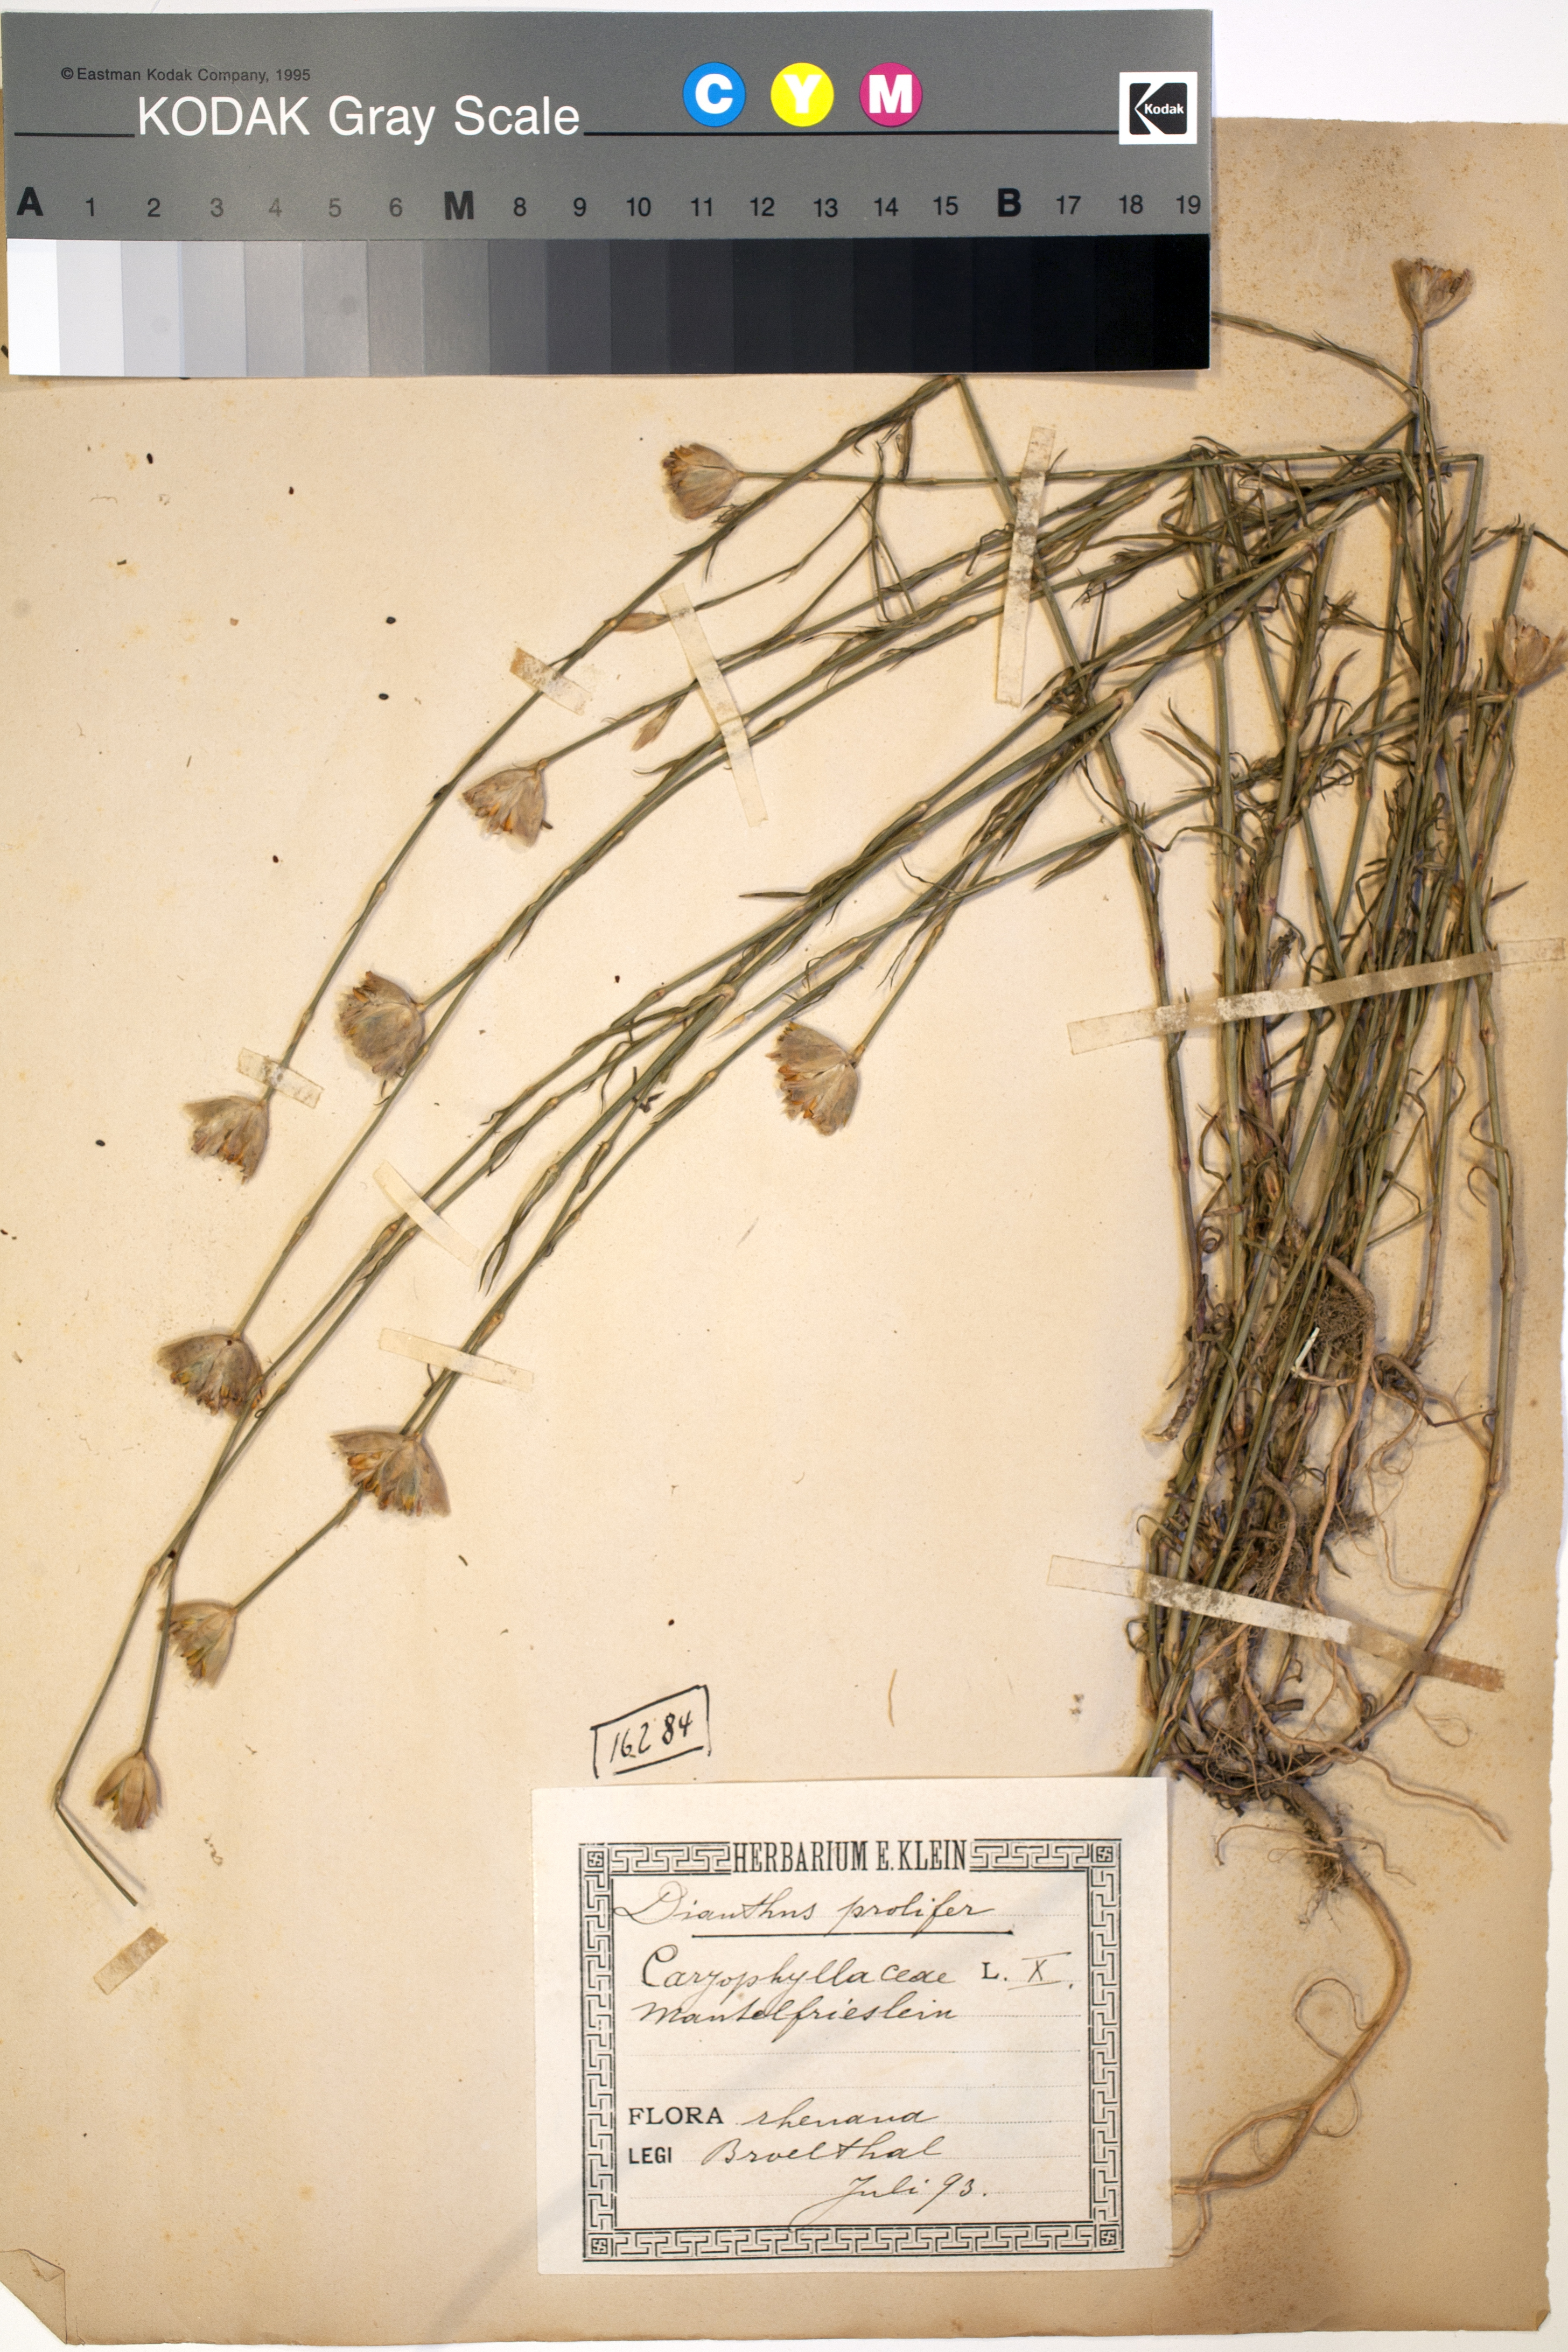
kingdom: Plantae
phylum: Tracheophyta
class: Magnoliopsida
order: Caryophyllales
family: Caryophyllaceae
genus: Petrorhagia
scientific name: Petrorhagia prolifera
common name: Proliferous pink
